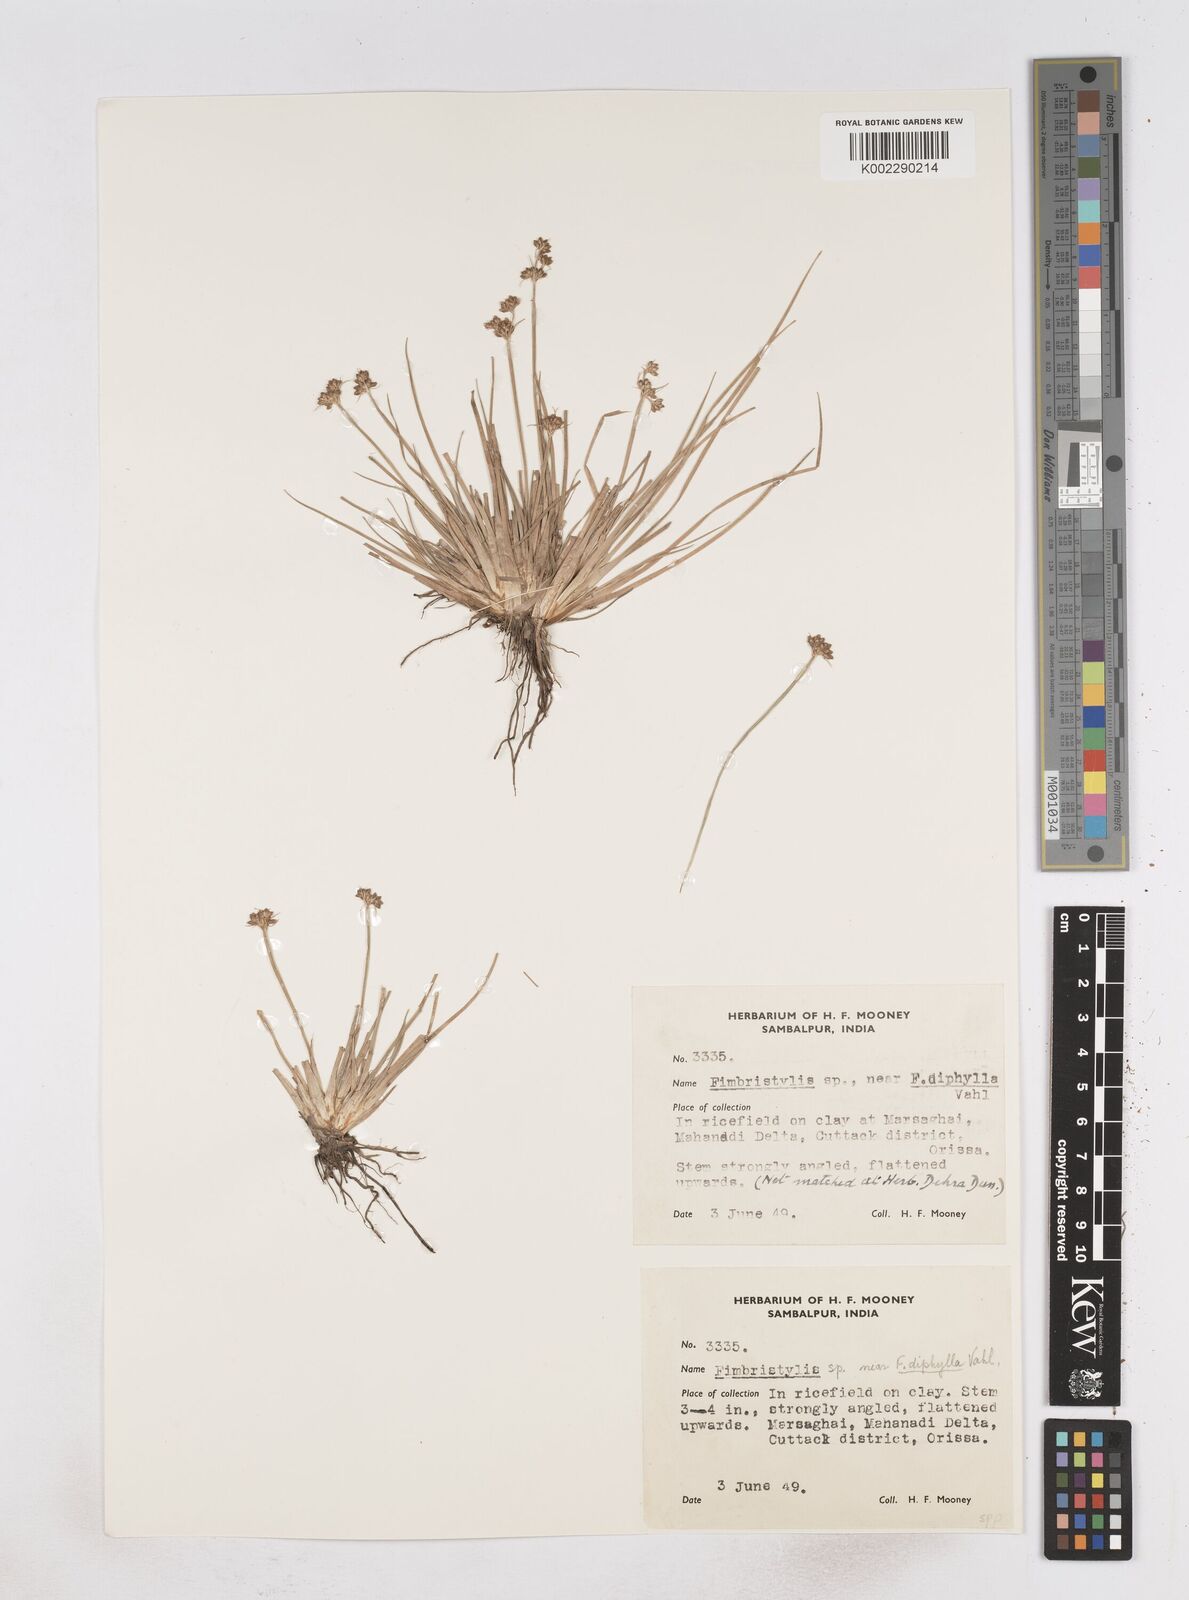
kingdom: Plantae
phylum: Tracheophyta
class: Liliopsida
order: Poales
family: Cyperaceae
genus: Fimbristylis
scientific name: Fimbristylis
